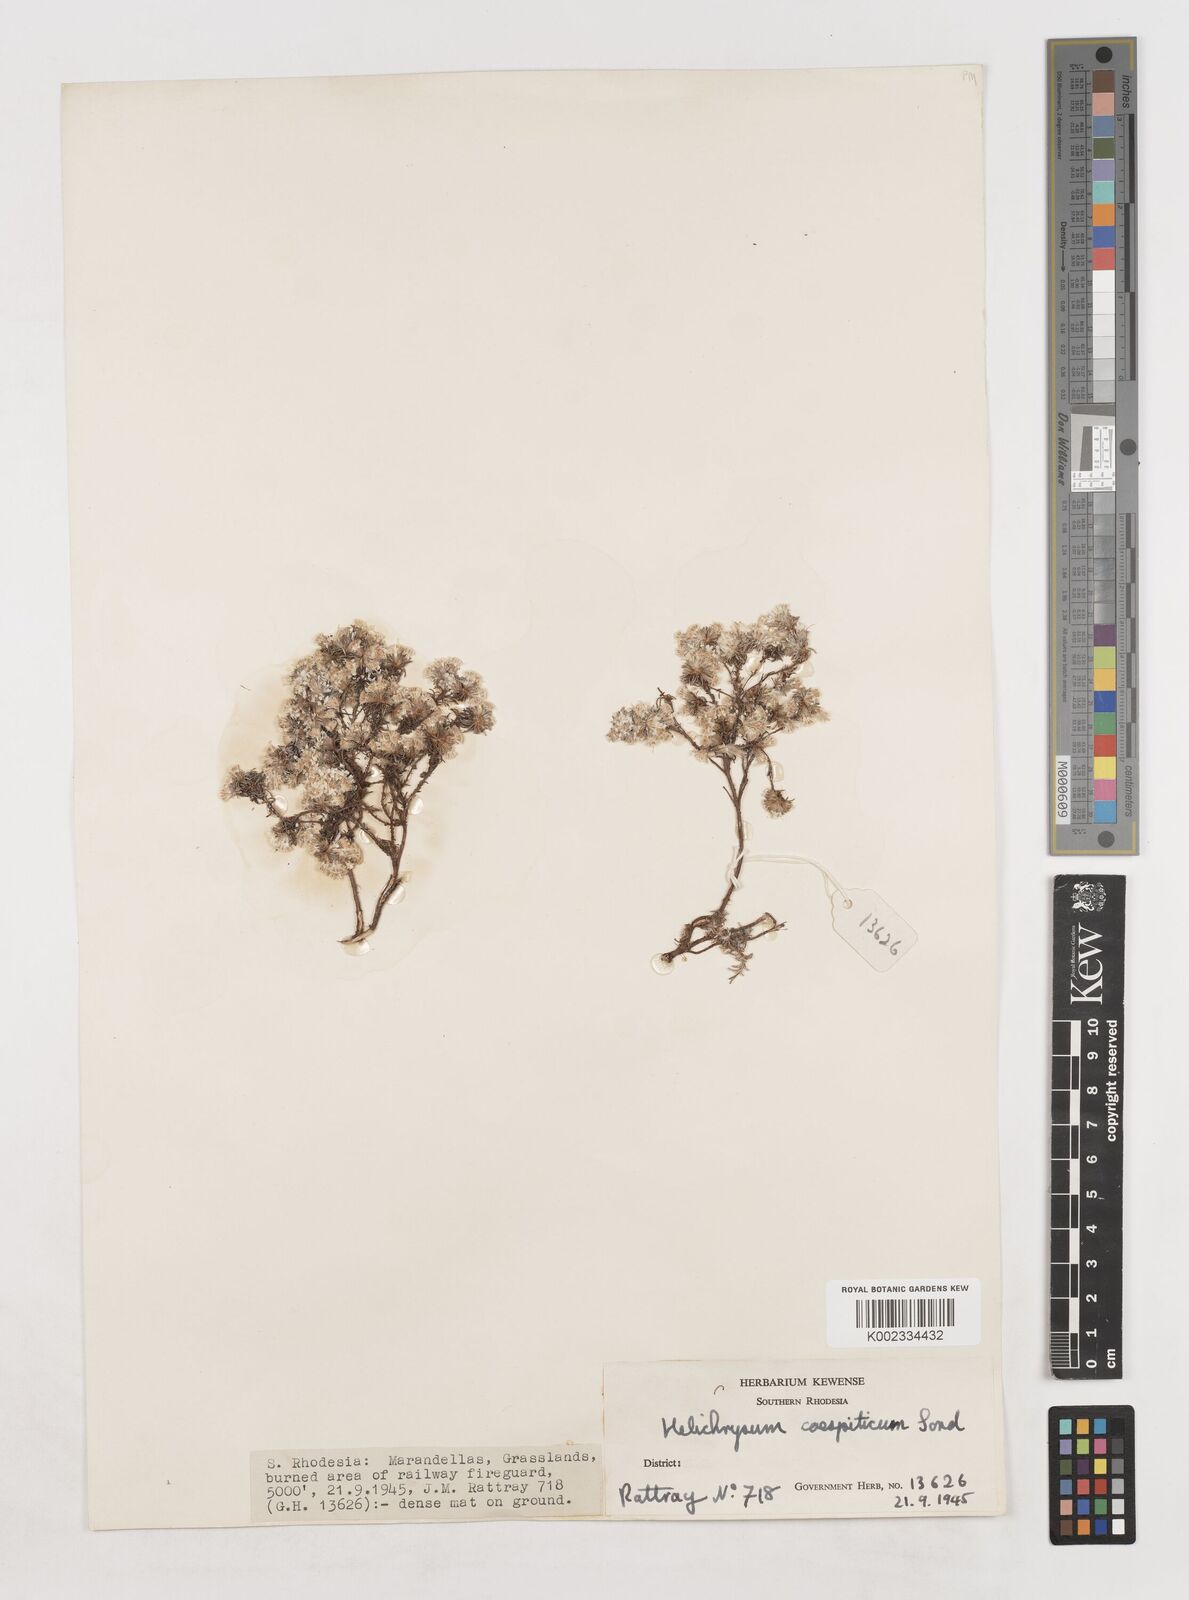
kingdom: Plantae
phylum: Tracheophyta
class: Magnoliopsida
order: Asterales
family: Asteraceae
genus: Helichrysum
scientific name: Helichrysum caespititium
